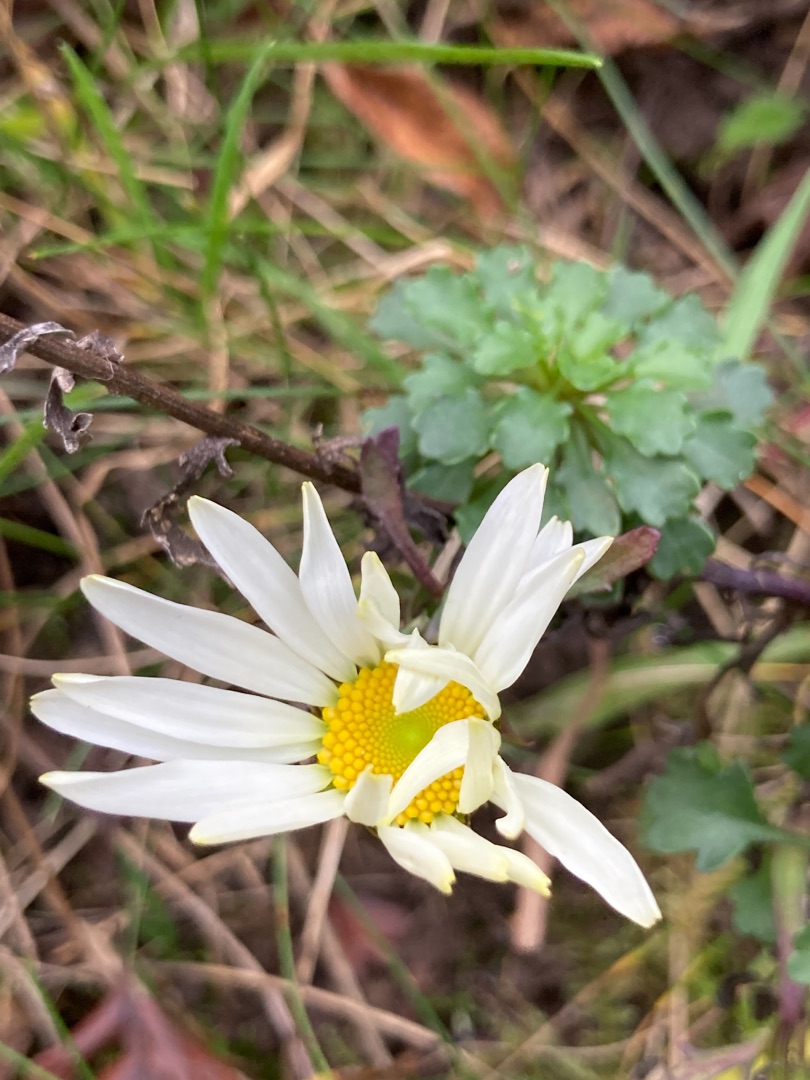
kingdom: Plantae
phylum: Tracheophyta
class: Magnoliopsida
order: Asterales
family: Asteraceae
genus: Leucanthemum
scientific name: Leucanthemum vulgare
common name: Hvid okseøje
